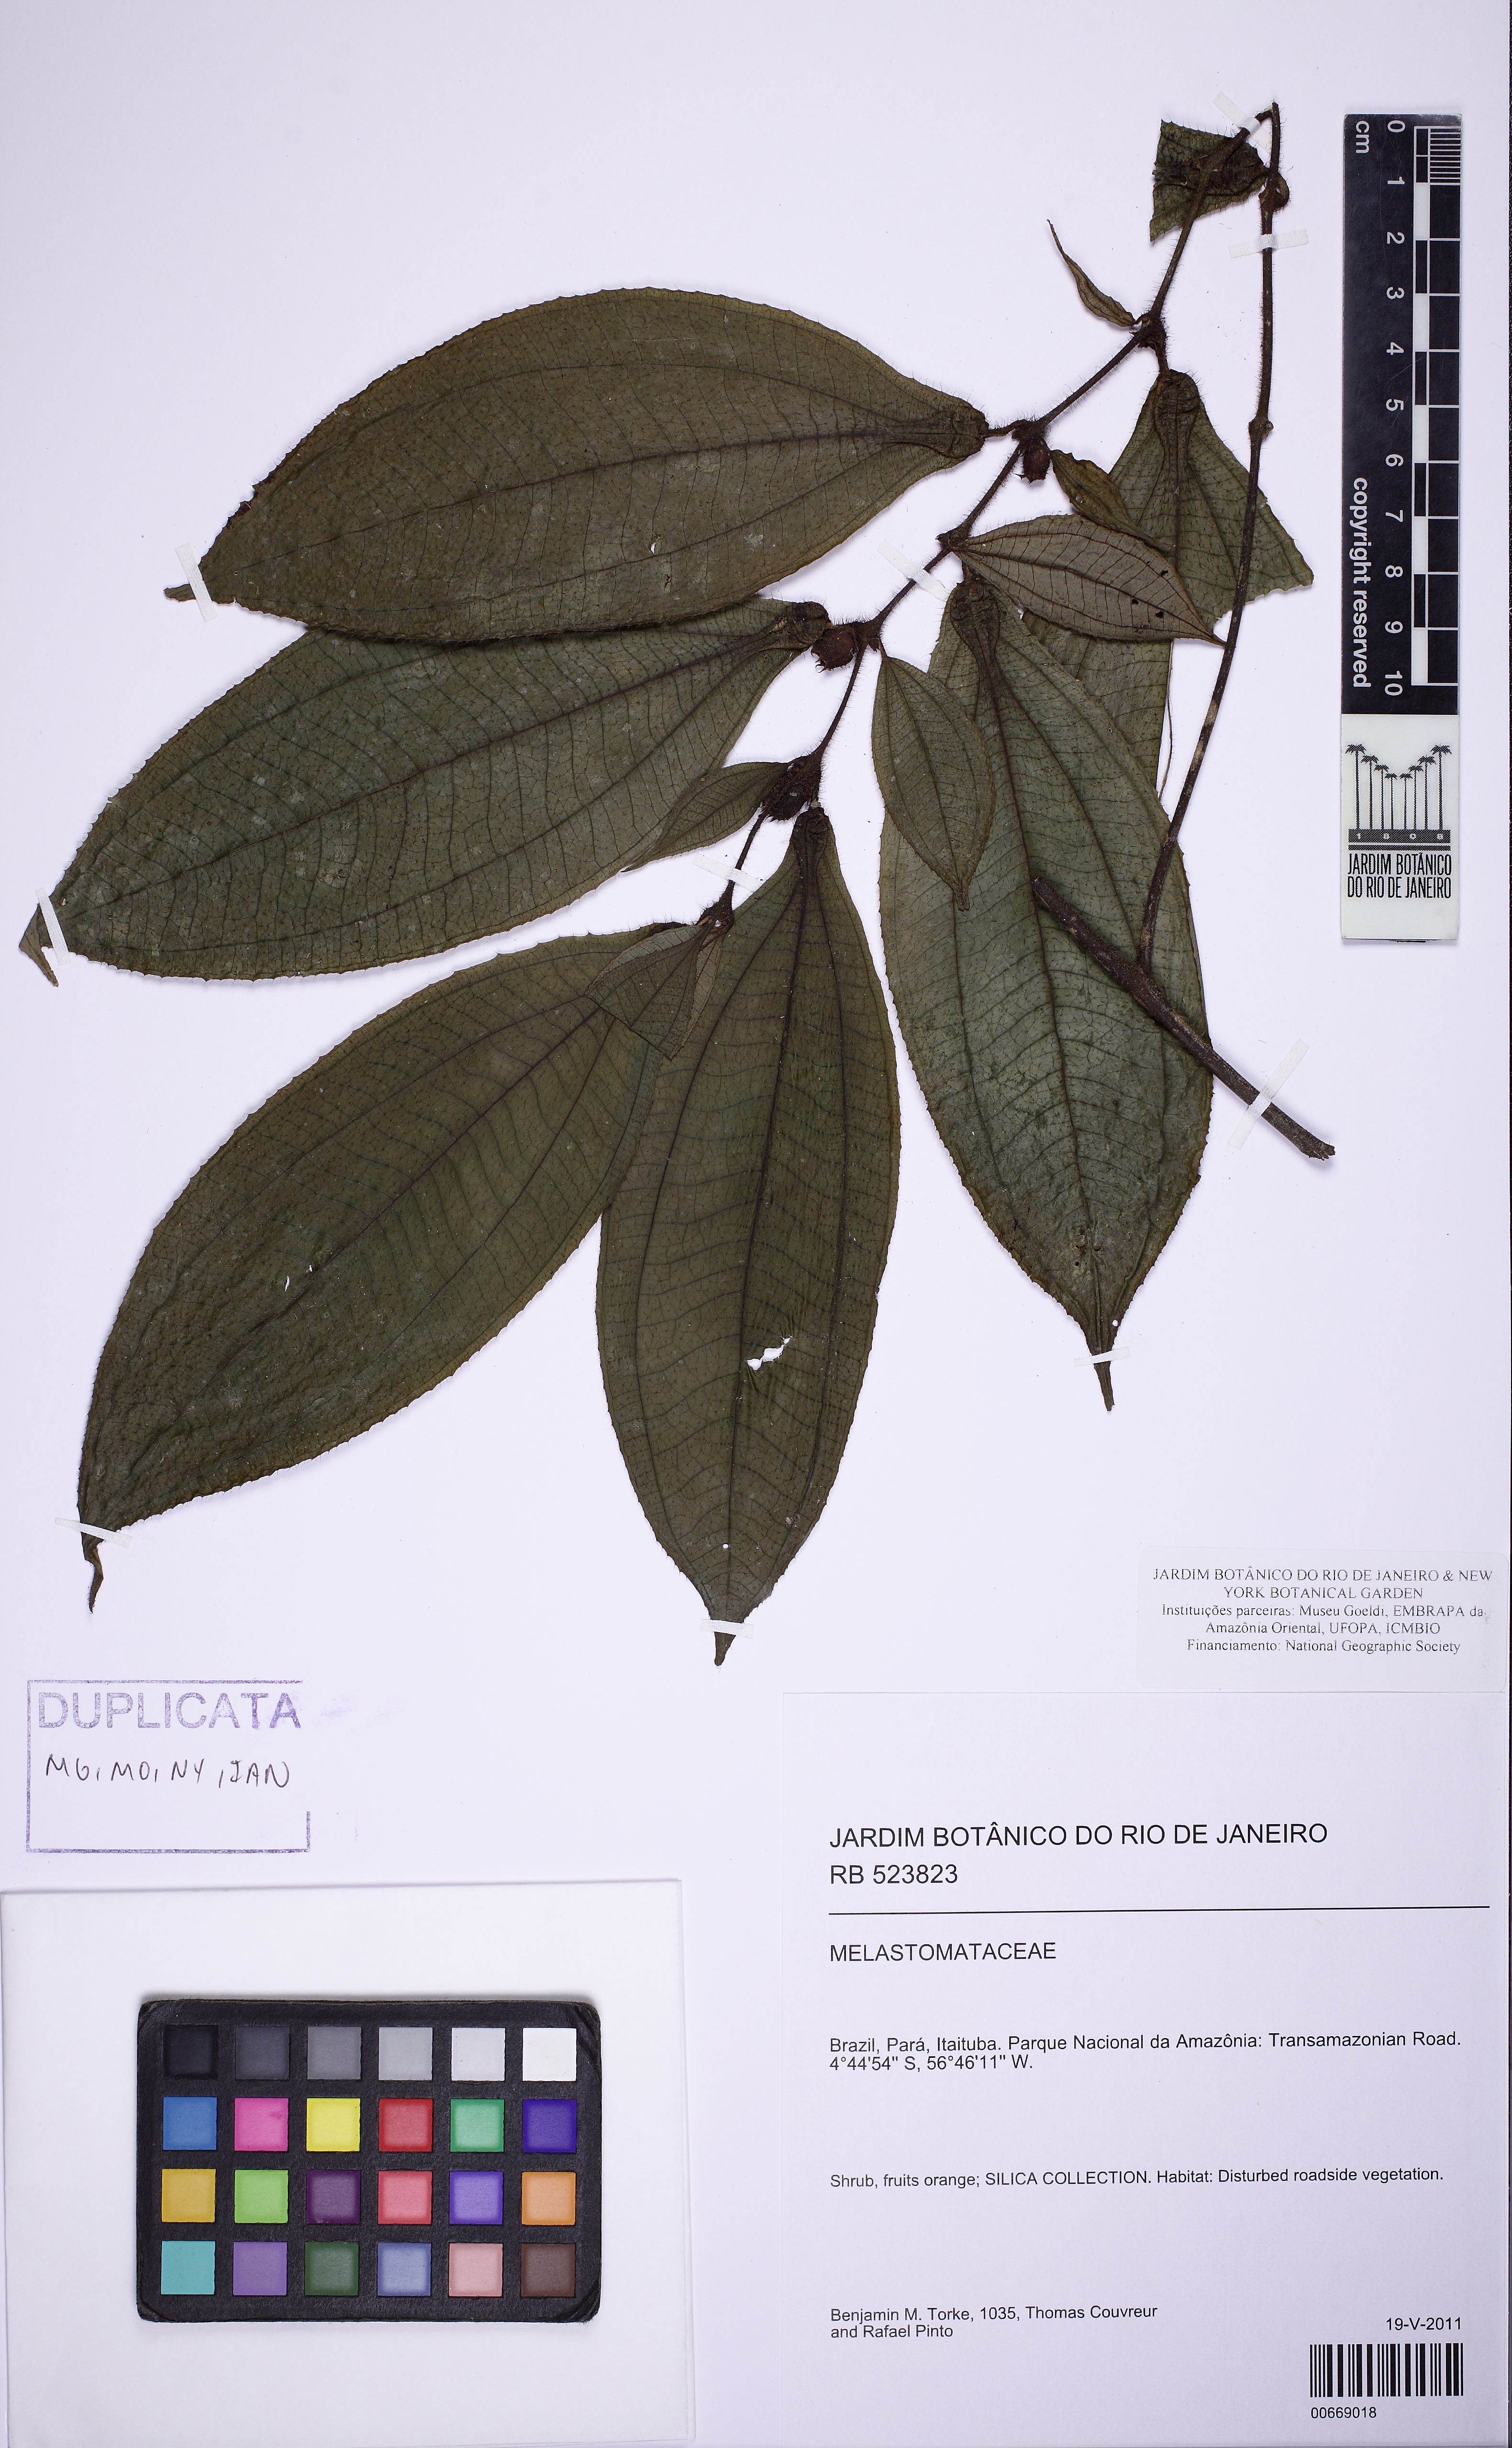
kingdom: Plantae
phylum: Tracheophyta
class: Magnoliopsida
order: Myrtales
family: Melastomataceae
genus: Miconia
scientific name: Miconia mayeta
